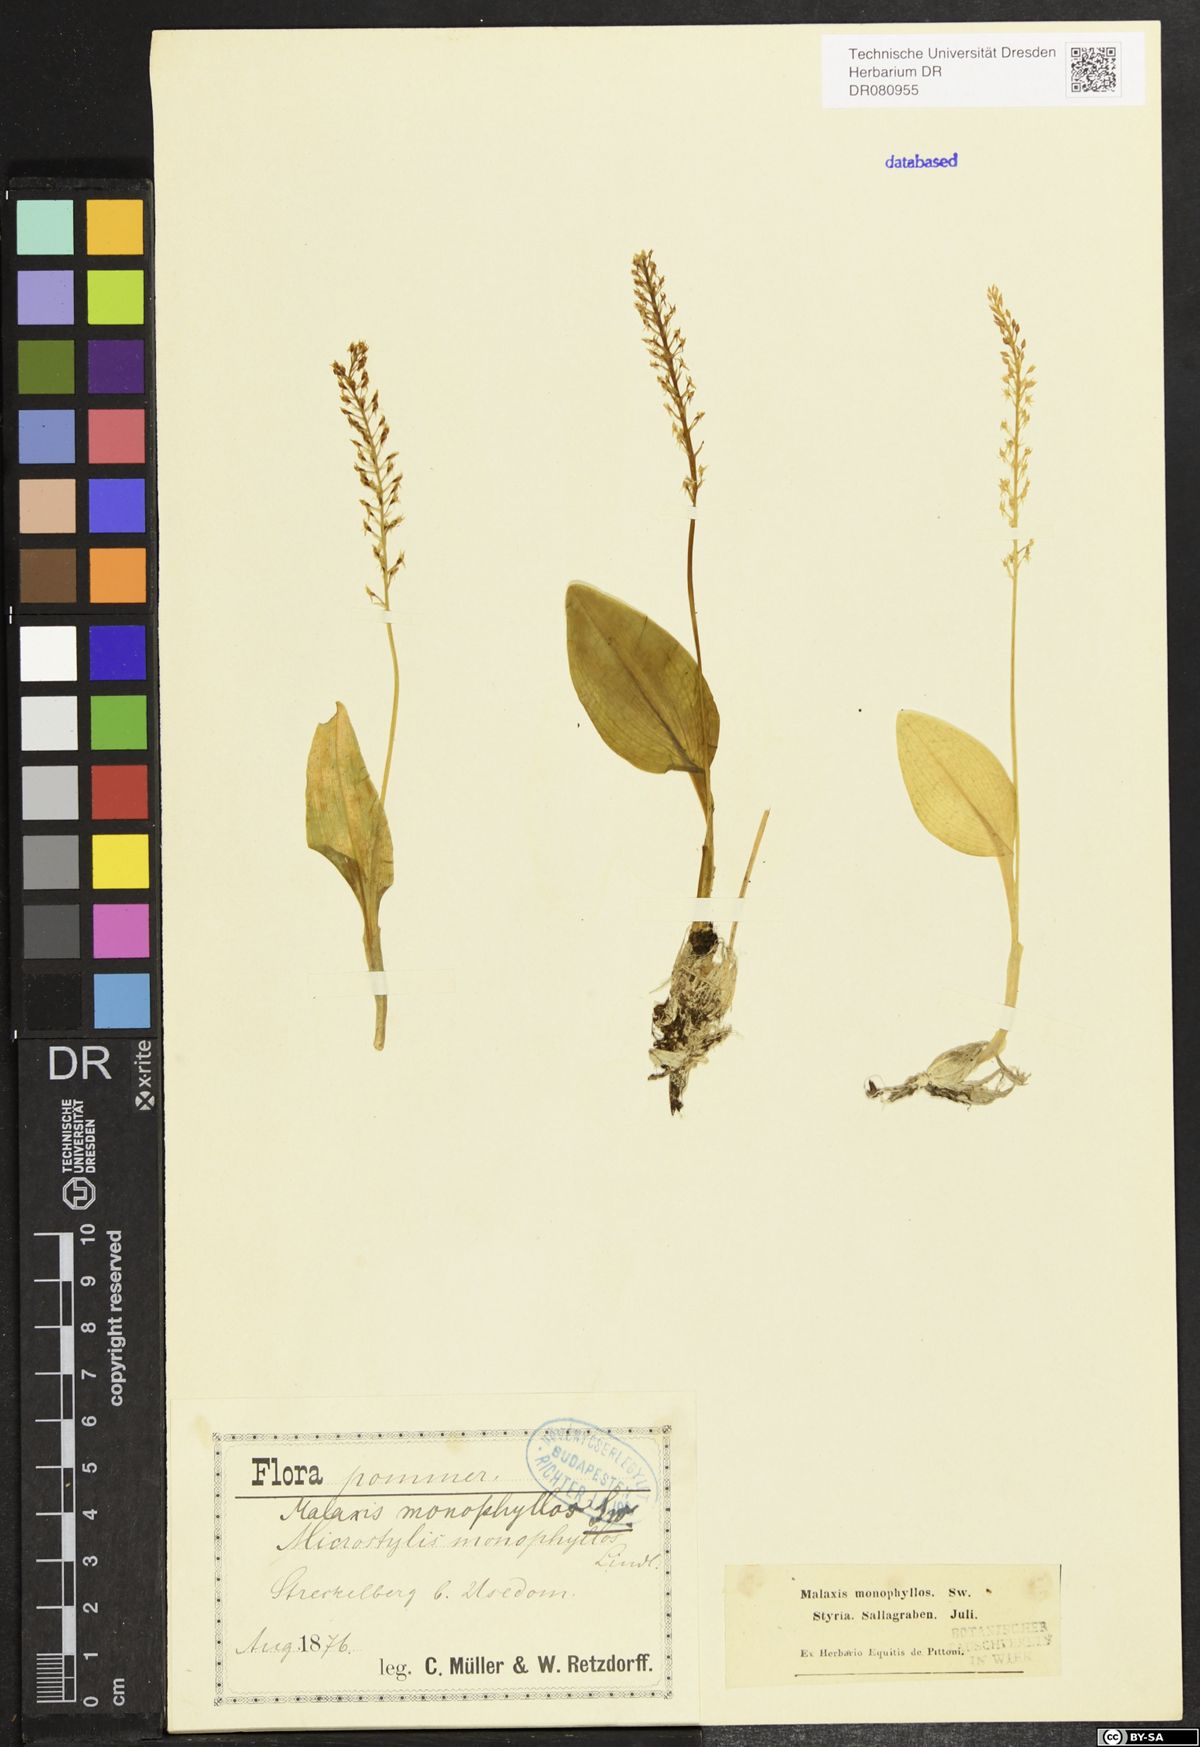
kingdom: Plantae
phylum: Tracheophyta
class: Liliopsida
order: Asparagales
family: Orchidaceae
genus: Malaxis
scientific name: Malaxis monophyllos
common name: White adder's-mouth
